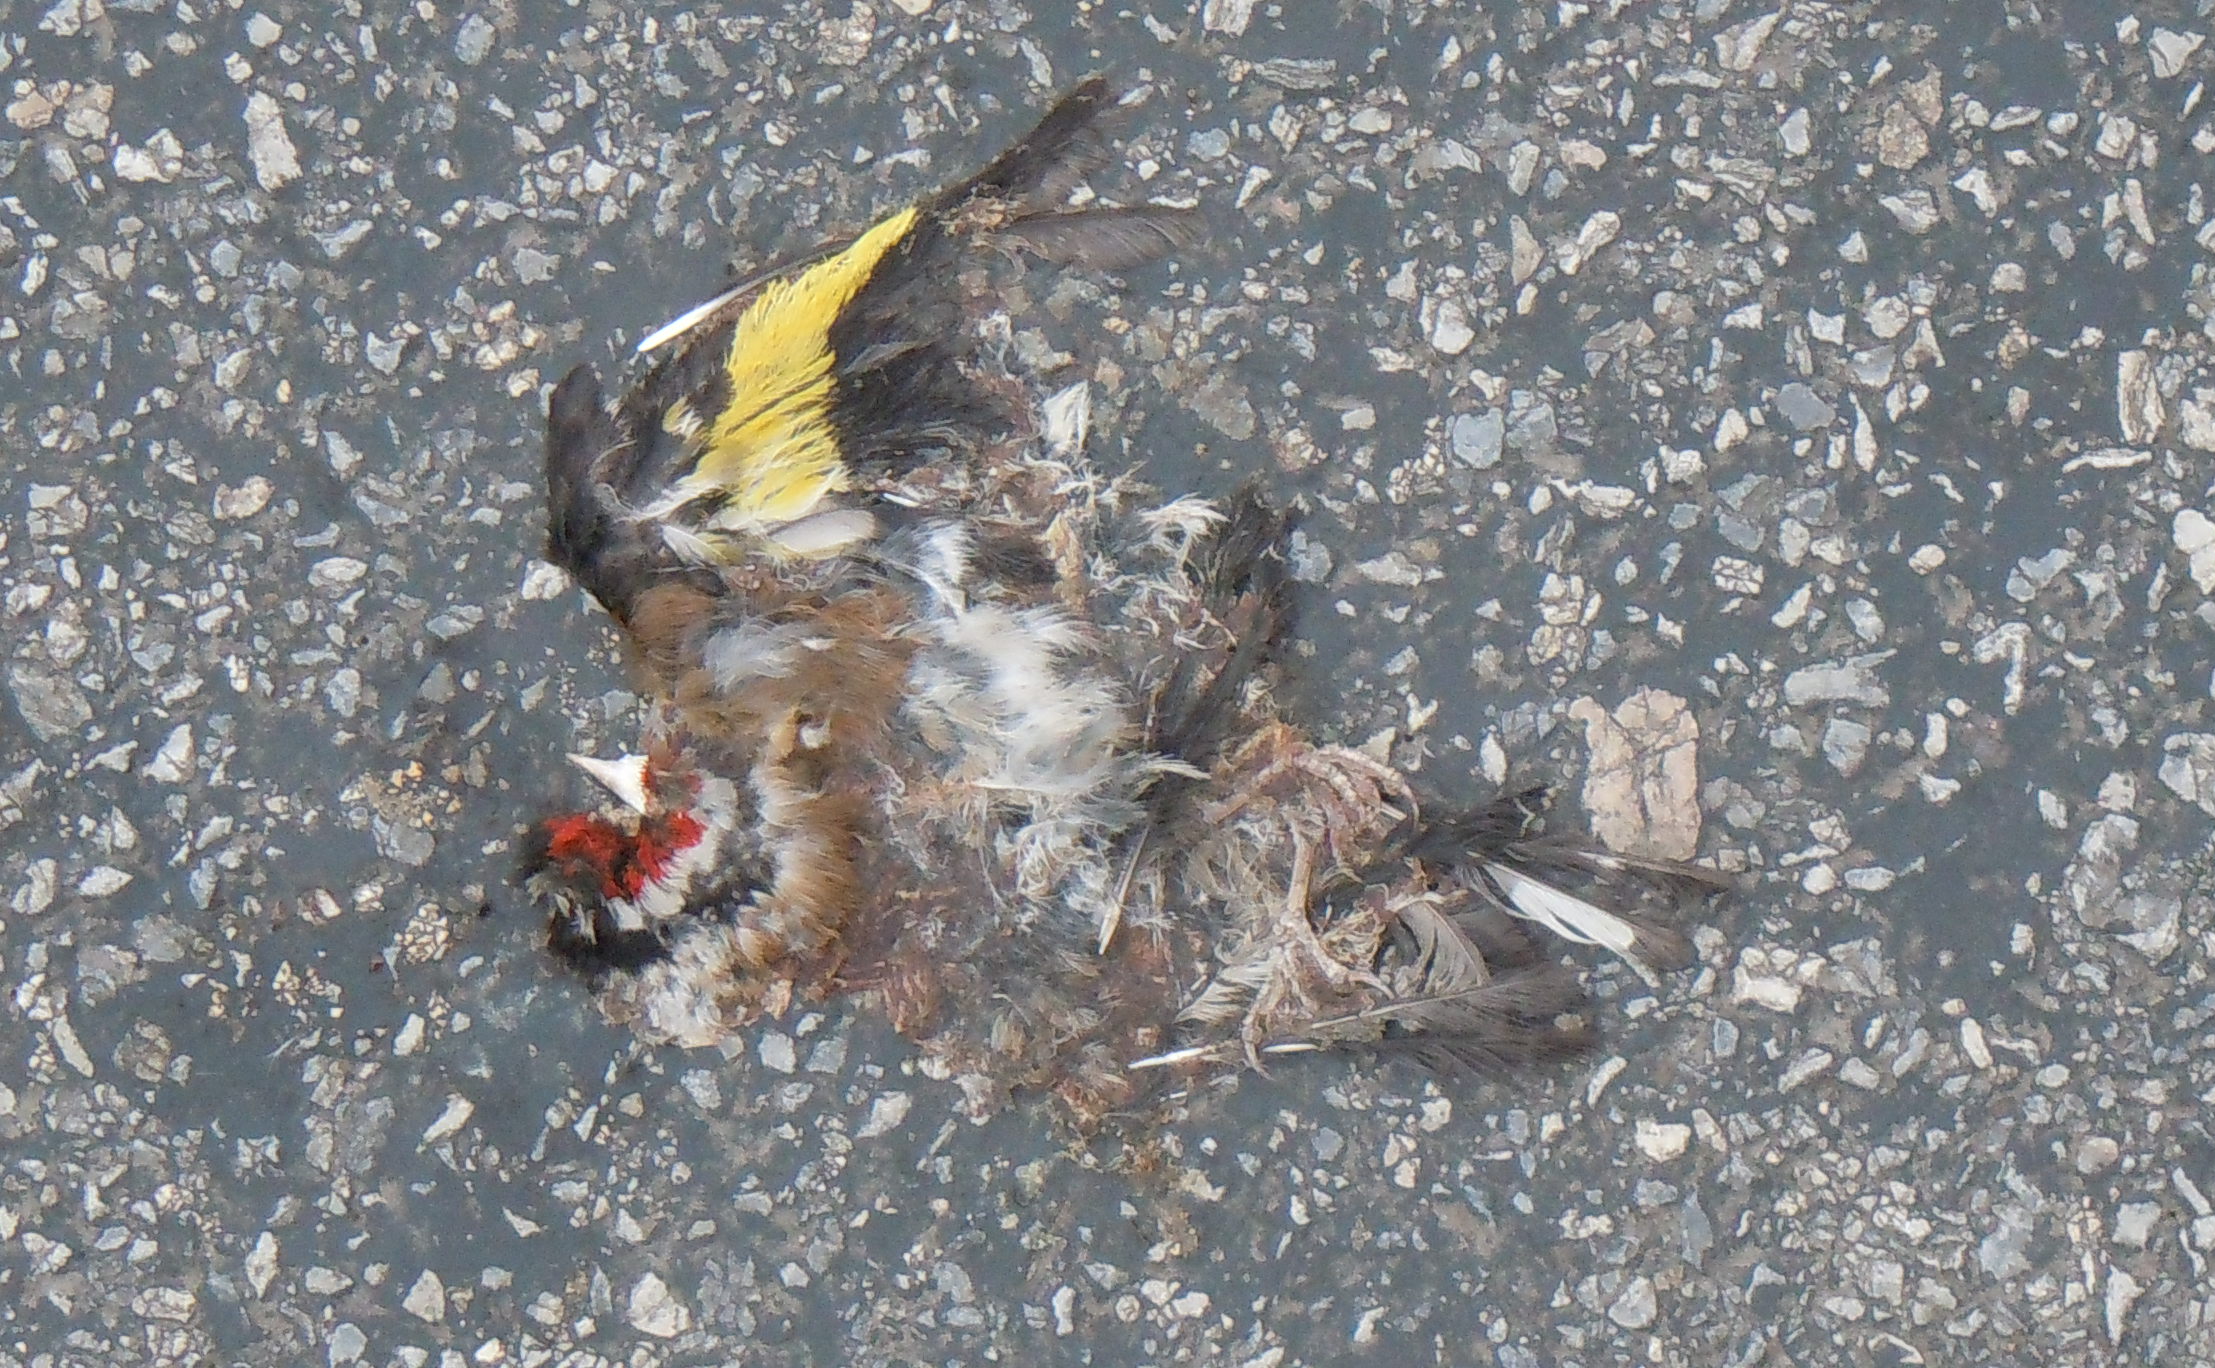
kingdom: Animalia
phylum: Chordata
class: Aves
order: Passeriformes
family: Fringillidae
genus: Carduelis
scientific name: Carduelis carduelis
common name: European goldfinch
